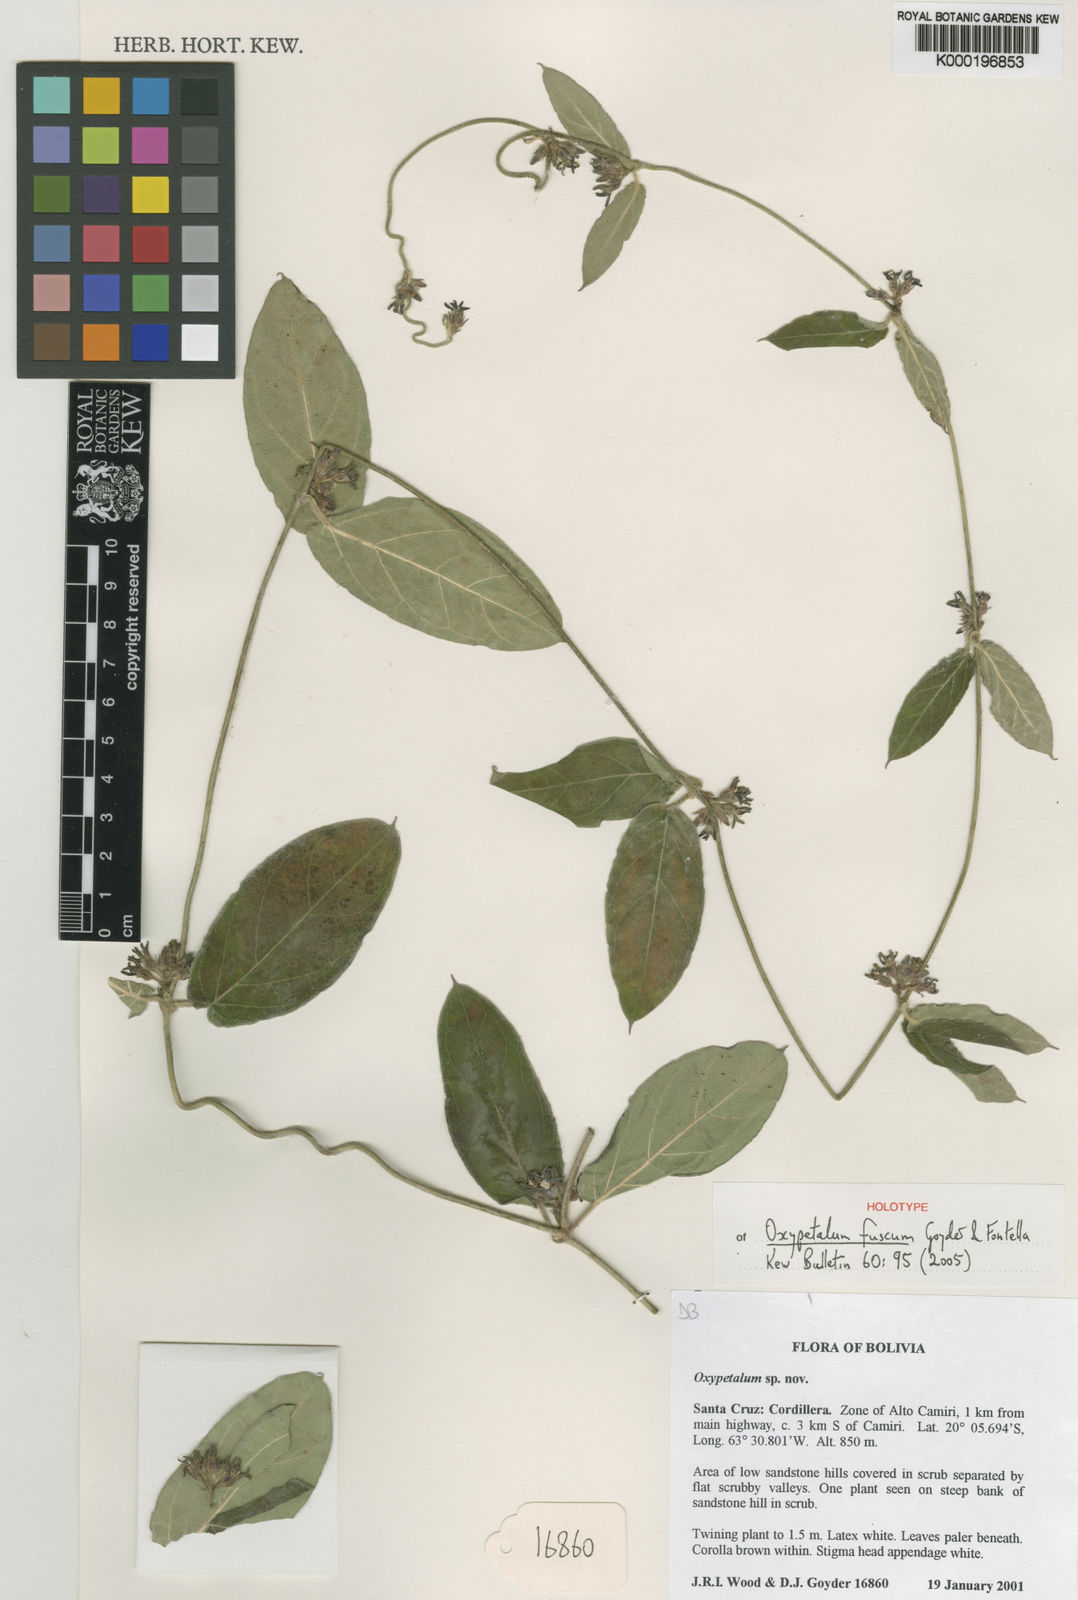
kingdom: Plantae
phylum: Tracheophyta
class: Magnoliopsida
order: Gentianales
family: Apocynaceae
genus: Oxypetalum
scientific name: Oxypetalum fuscum
